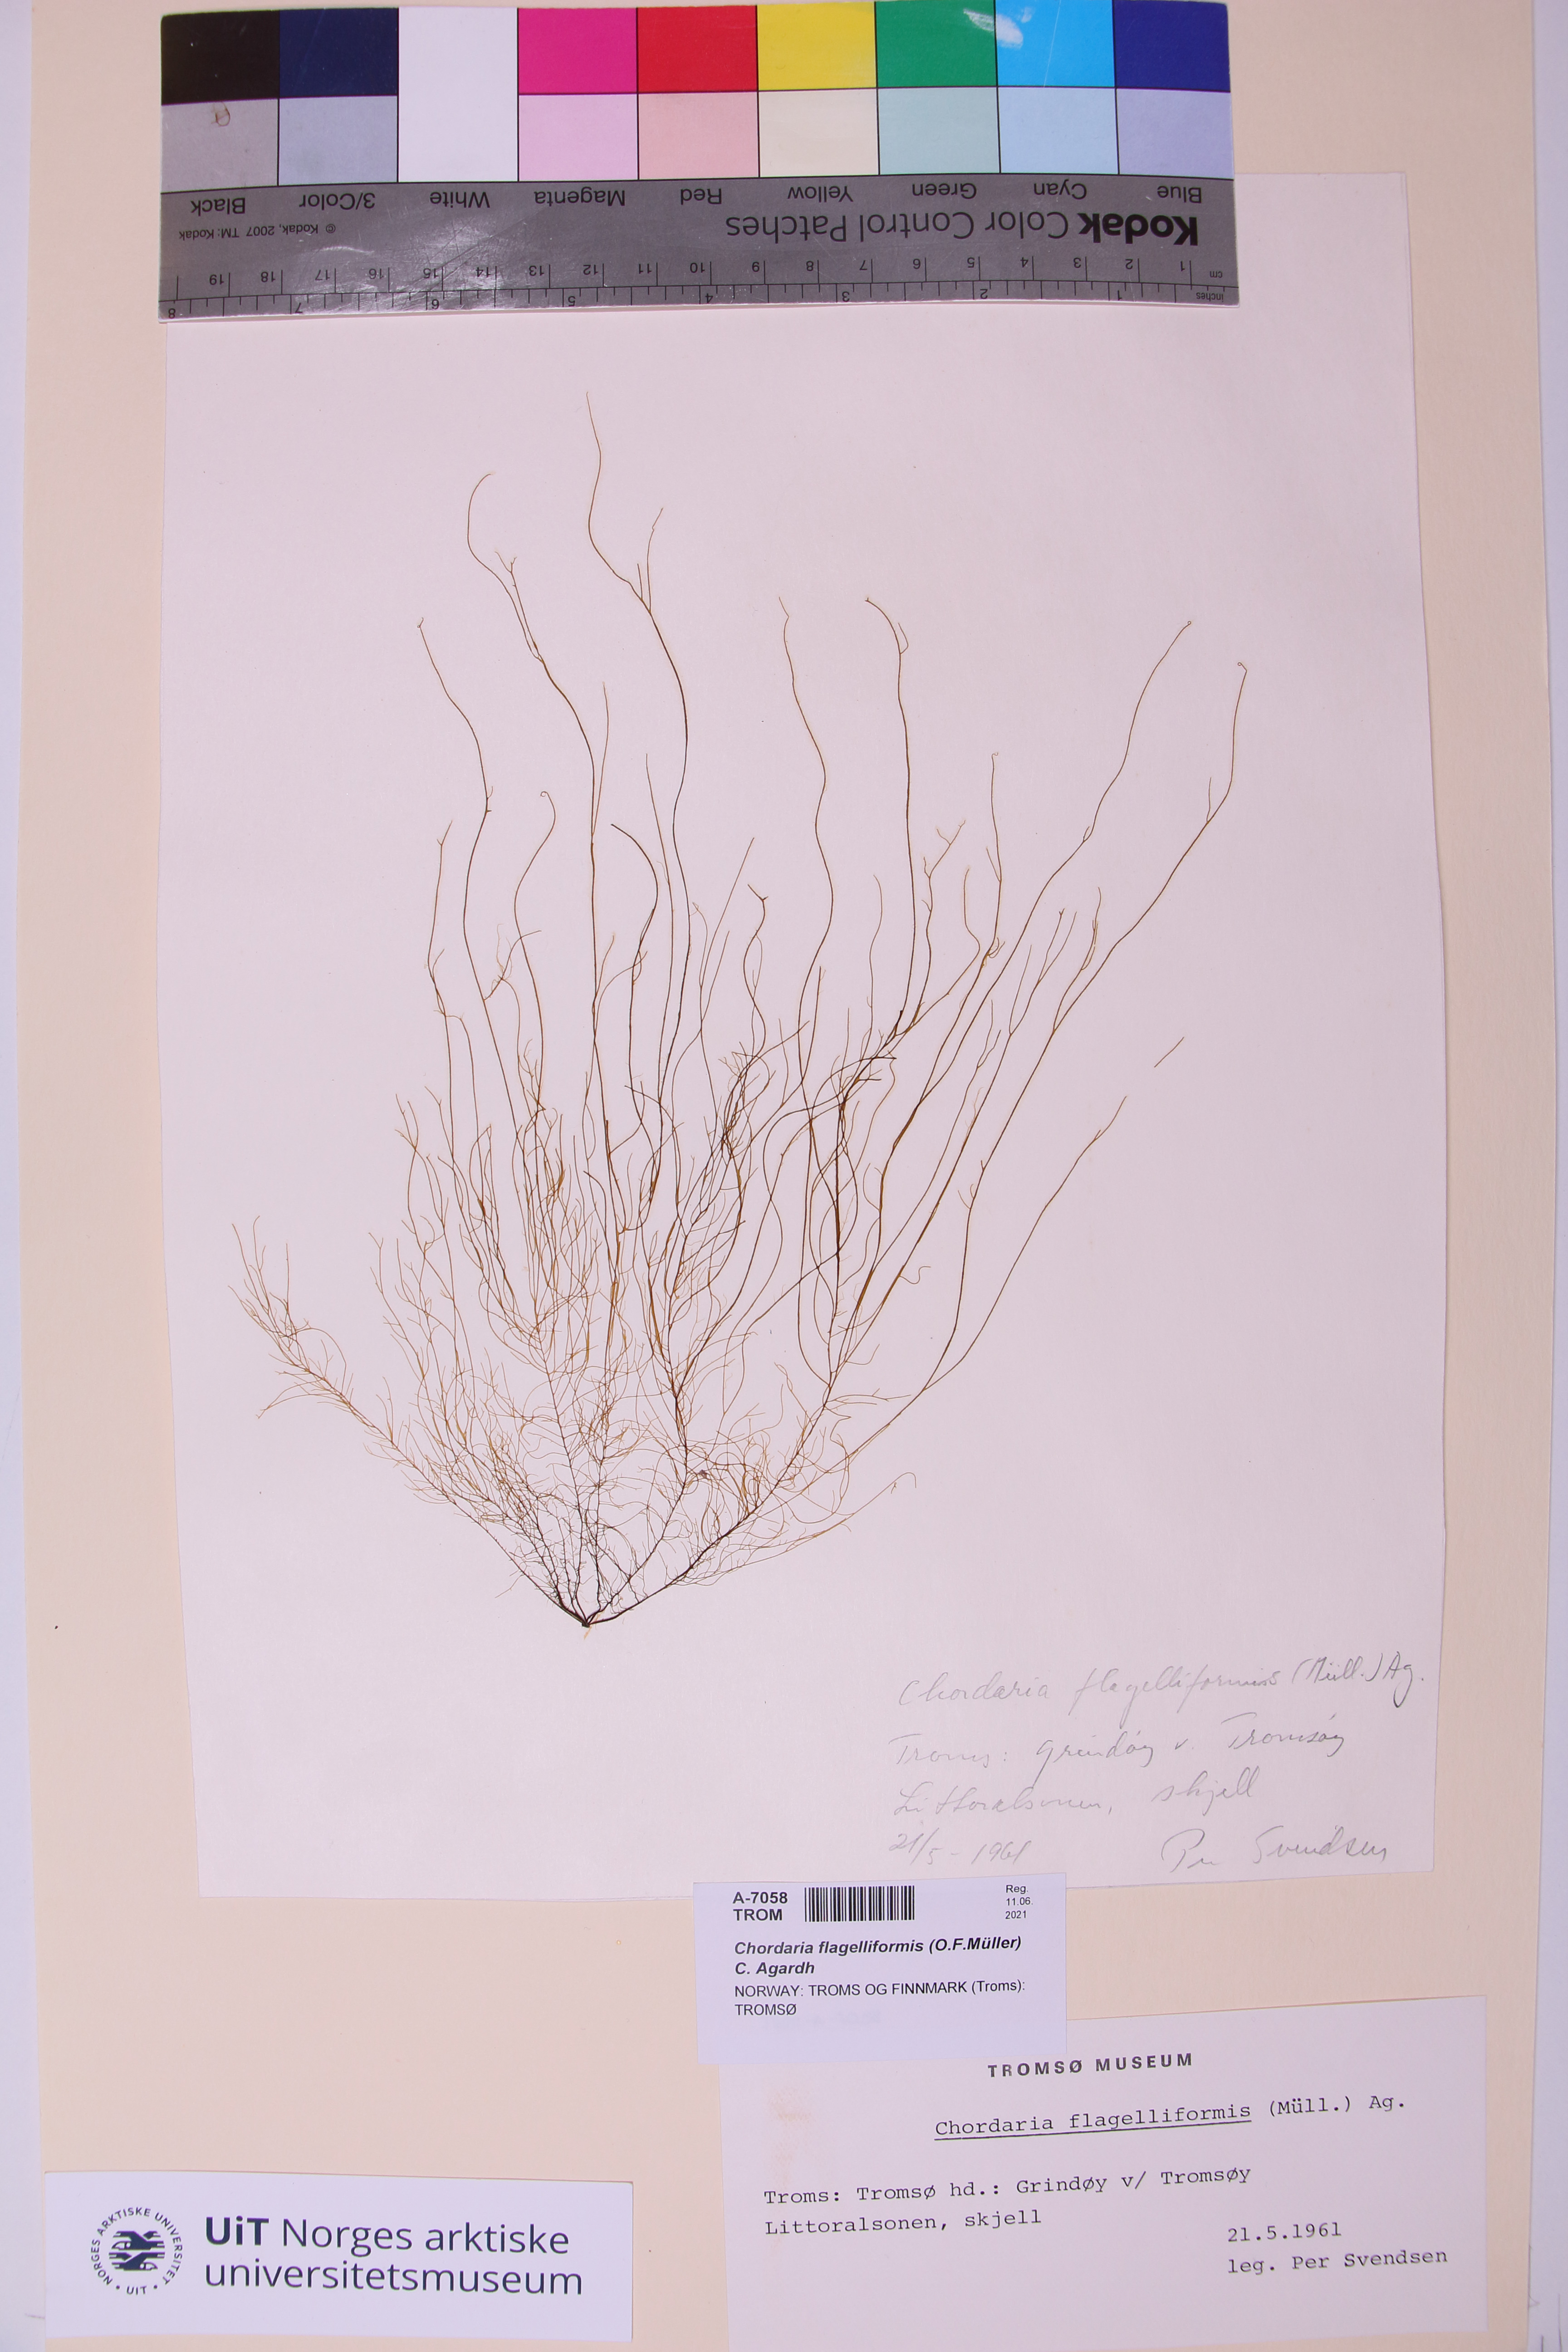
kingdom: Chromista
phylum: Ochrophyta
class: Phaeophyceae
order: Ectocarpales
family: Chordariaceae
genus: Chordaria
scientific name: Chordaria flagelliformis
